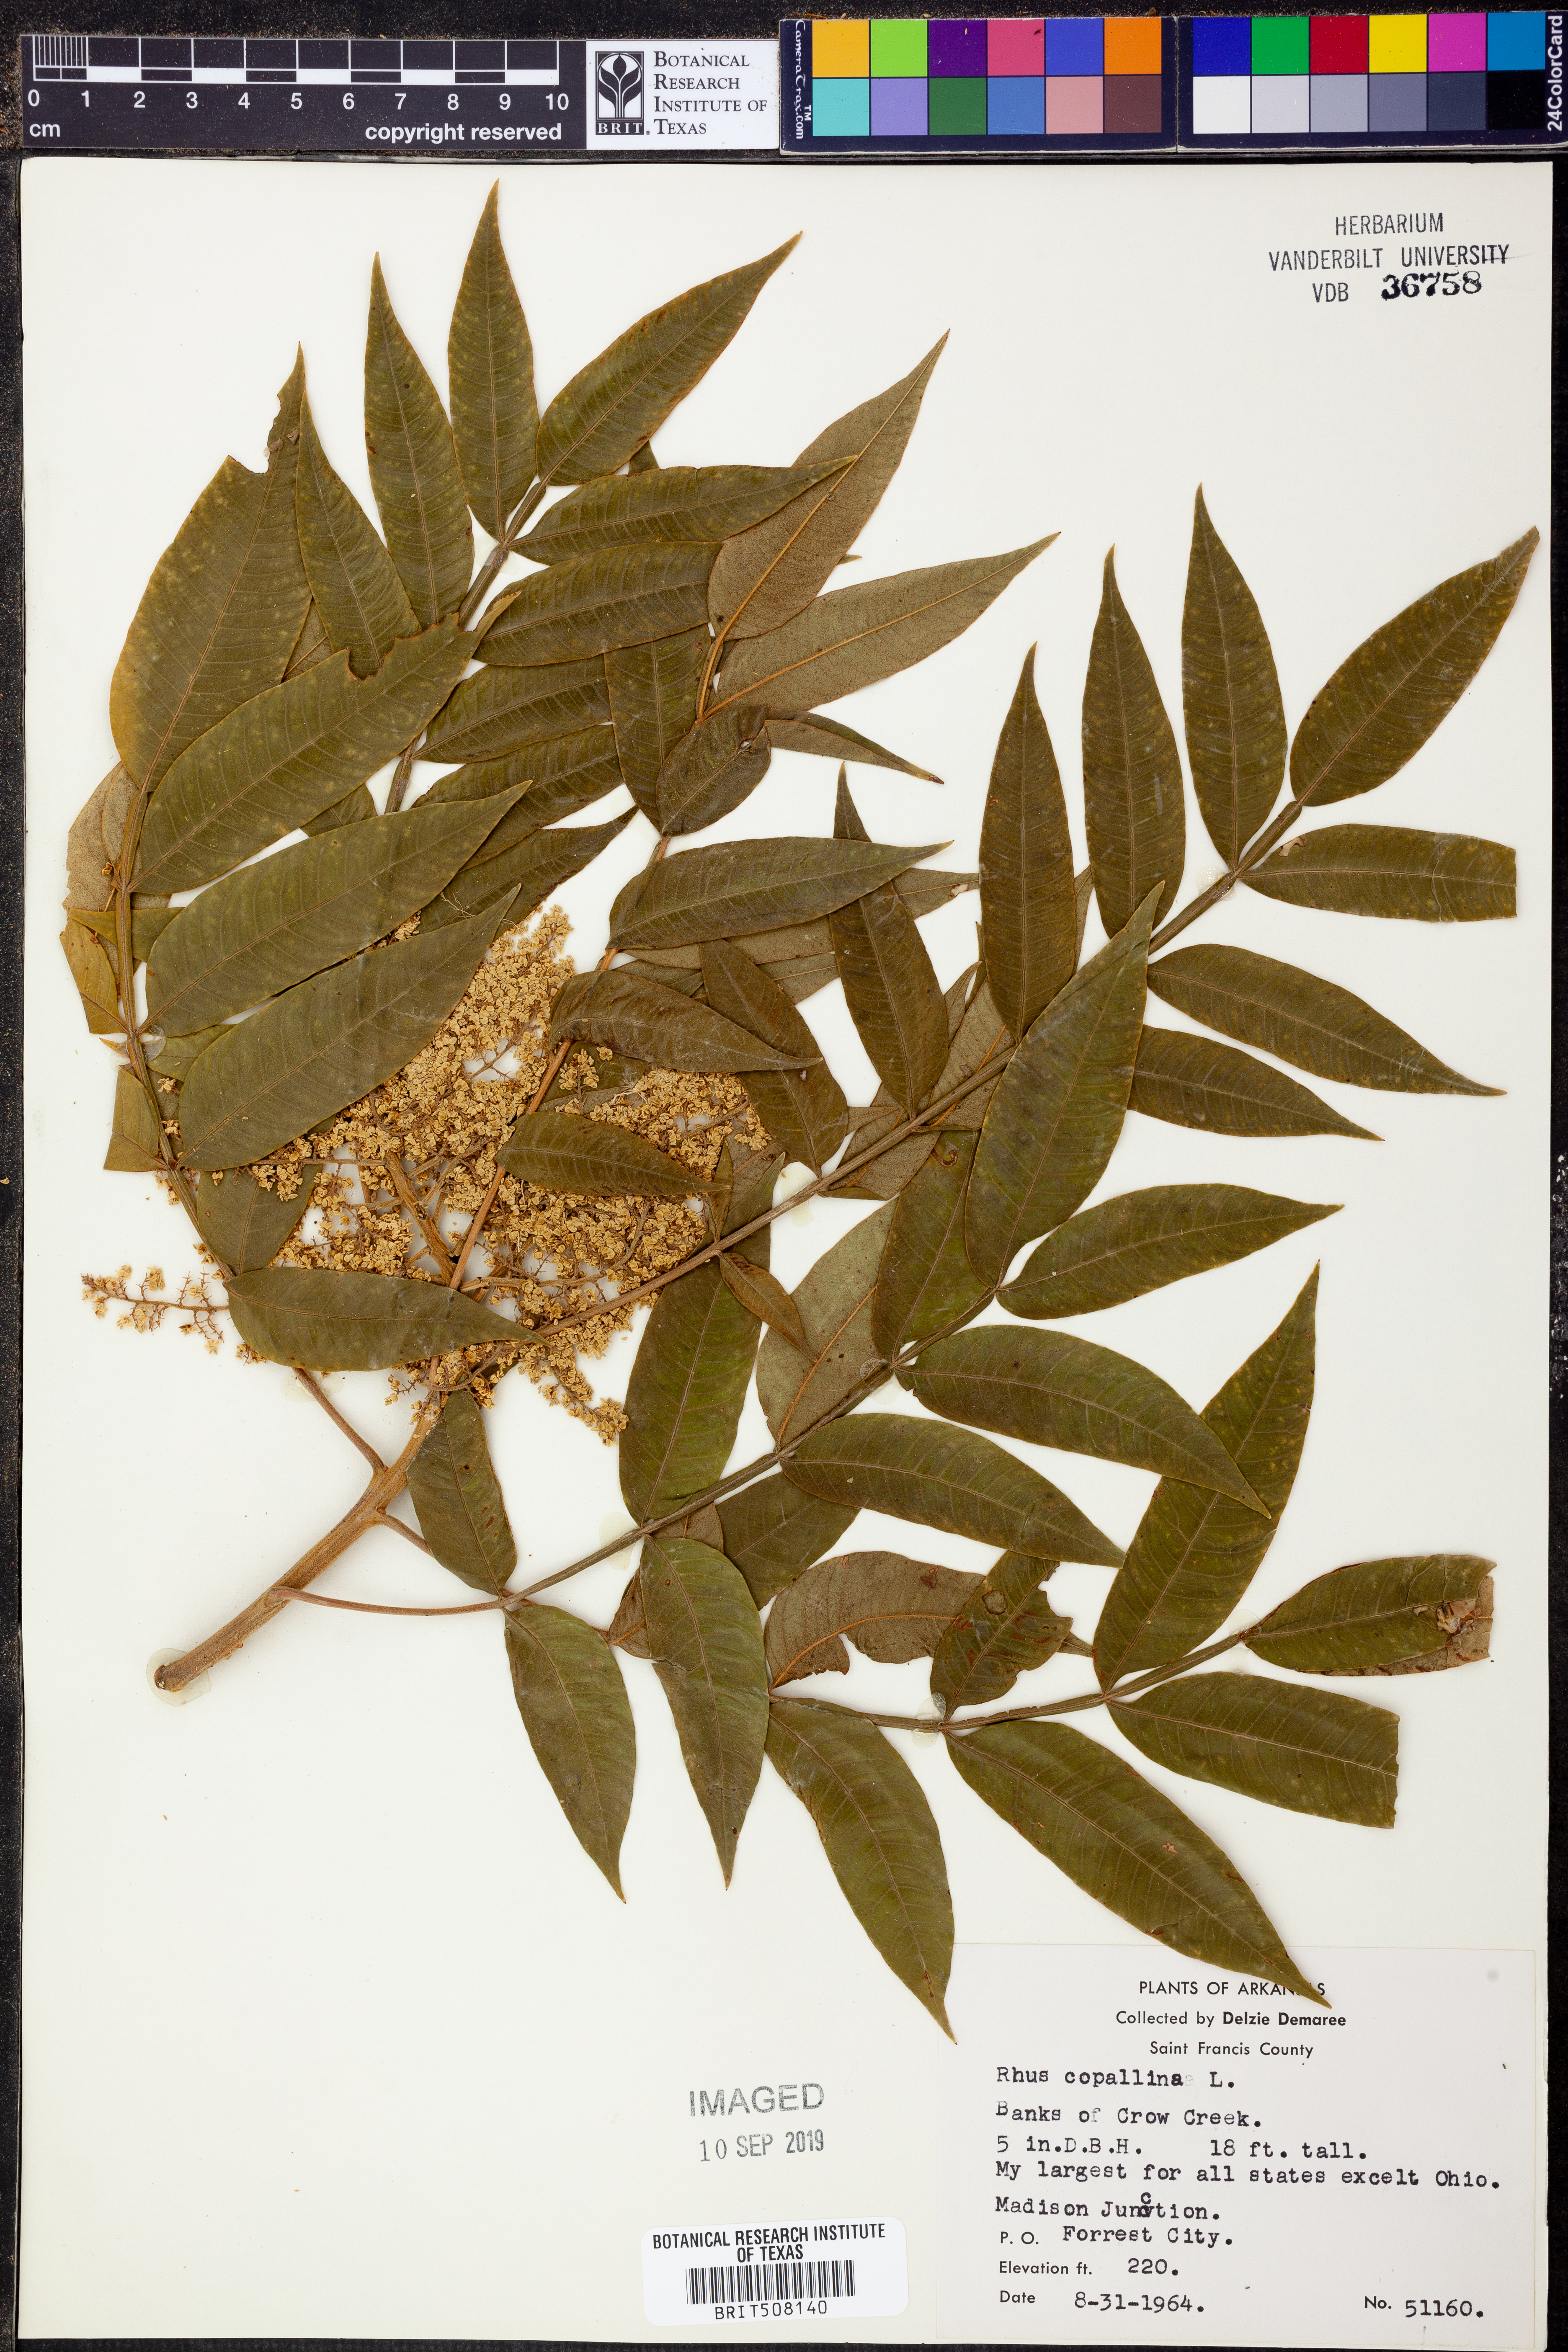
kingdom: Plantae
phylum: Tracheophyta
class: Magnoliopsida
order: Sapindales
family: Anacardiaceae
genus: Rhus
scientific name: Rhus copallina
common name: Shining sumac
